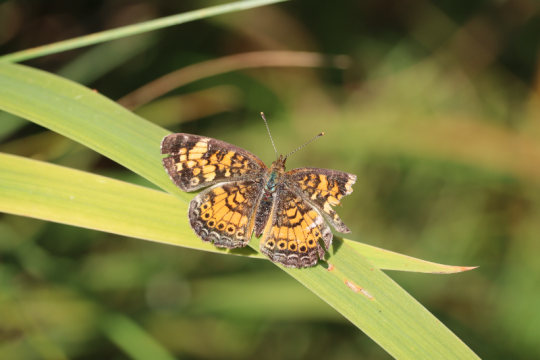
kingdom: Animalia
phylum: Arthropoda
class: Insecta
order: Lepidoptera
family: Nymphalidae
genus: Phyciodes
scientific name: Phyciodes
